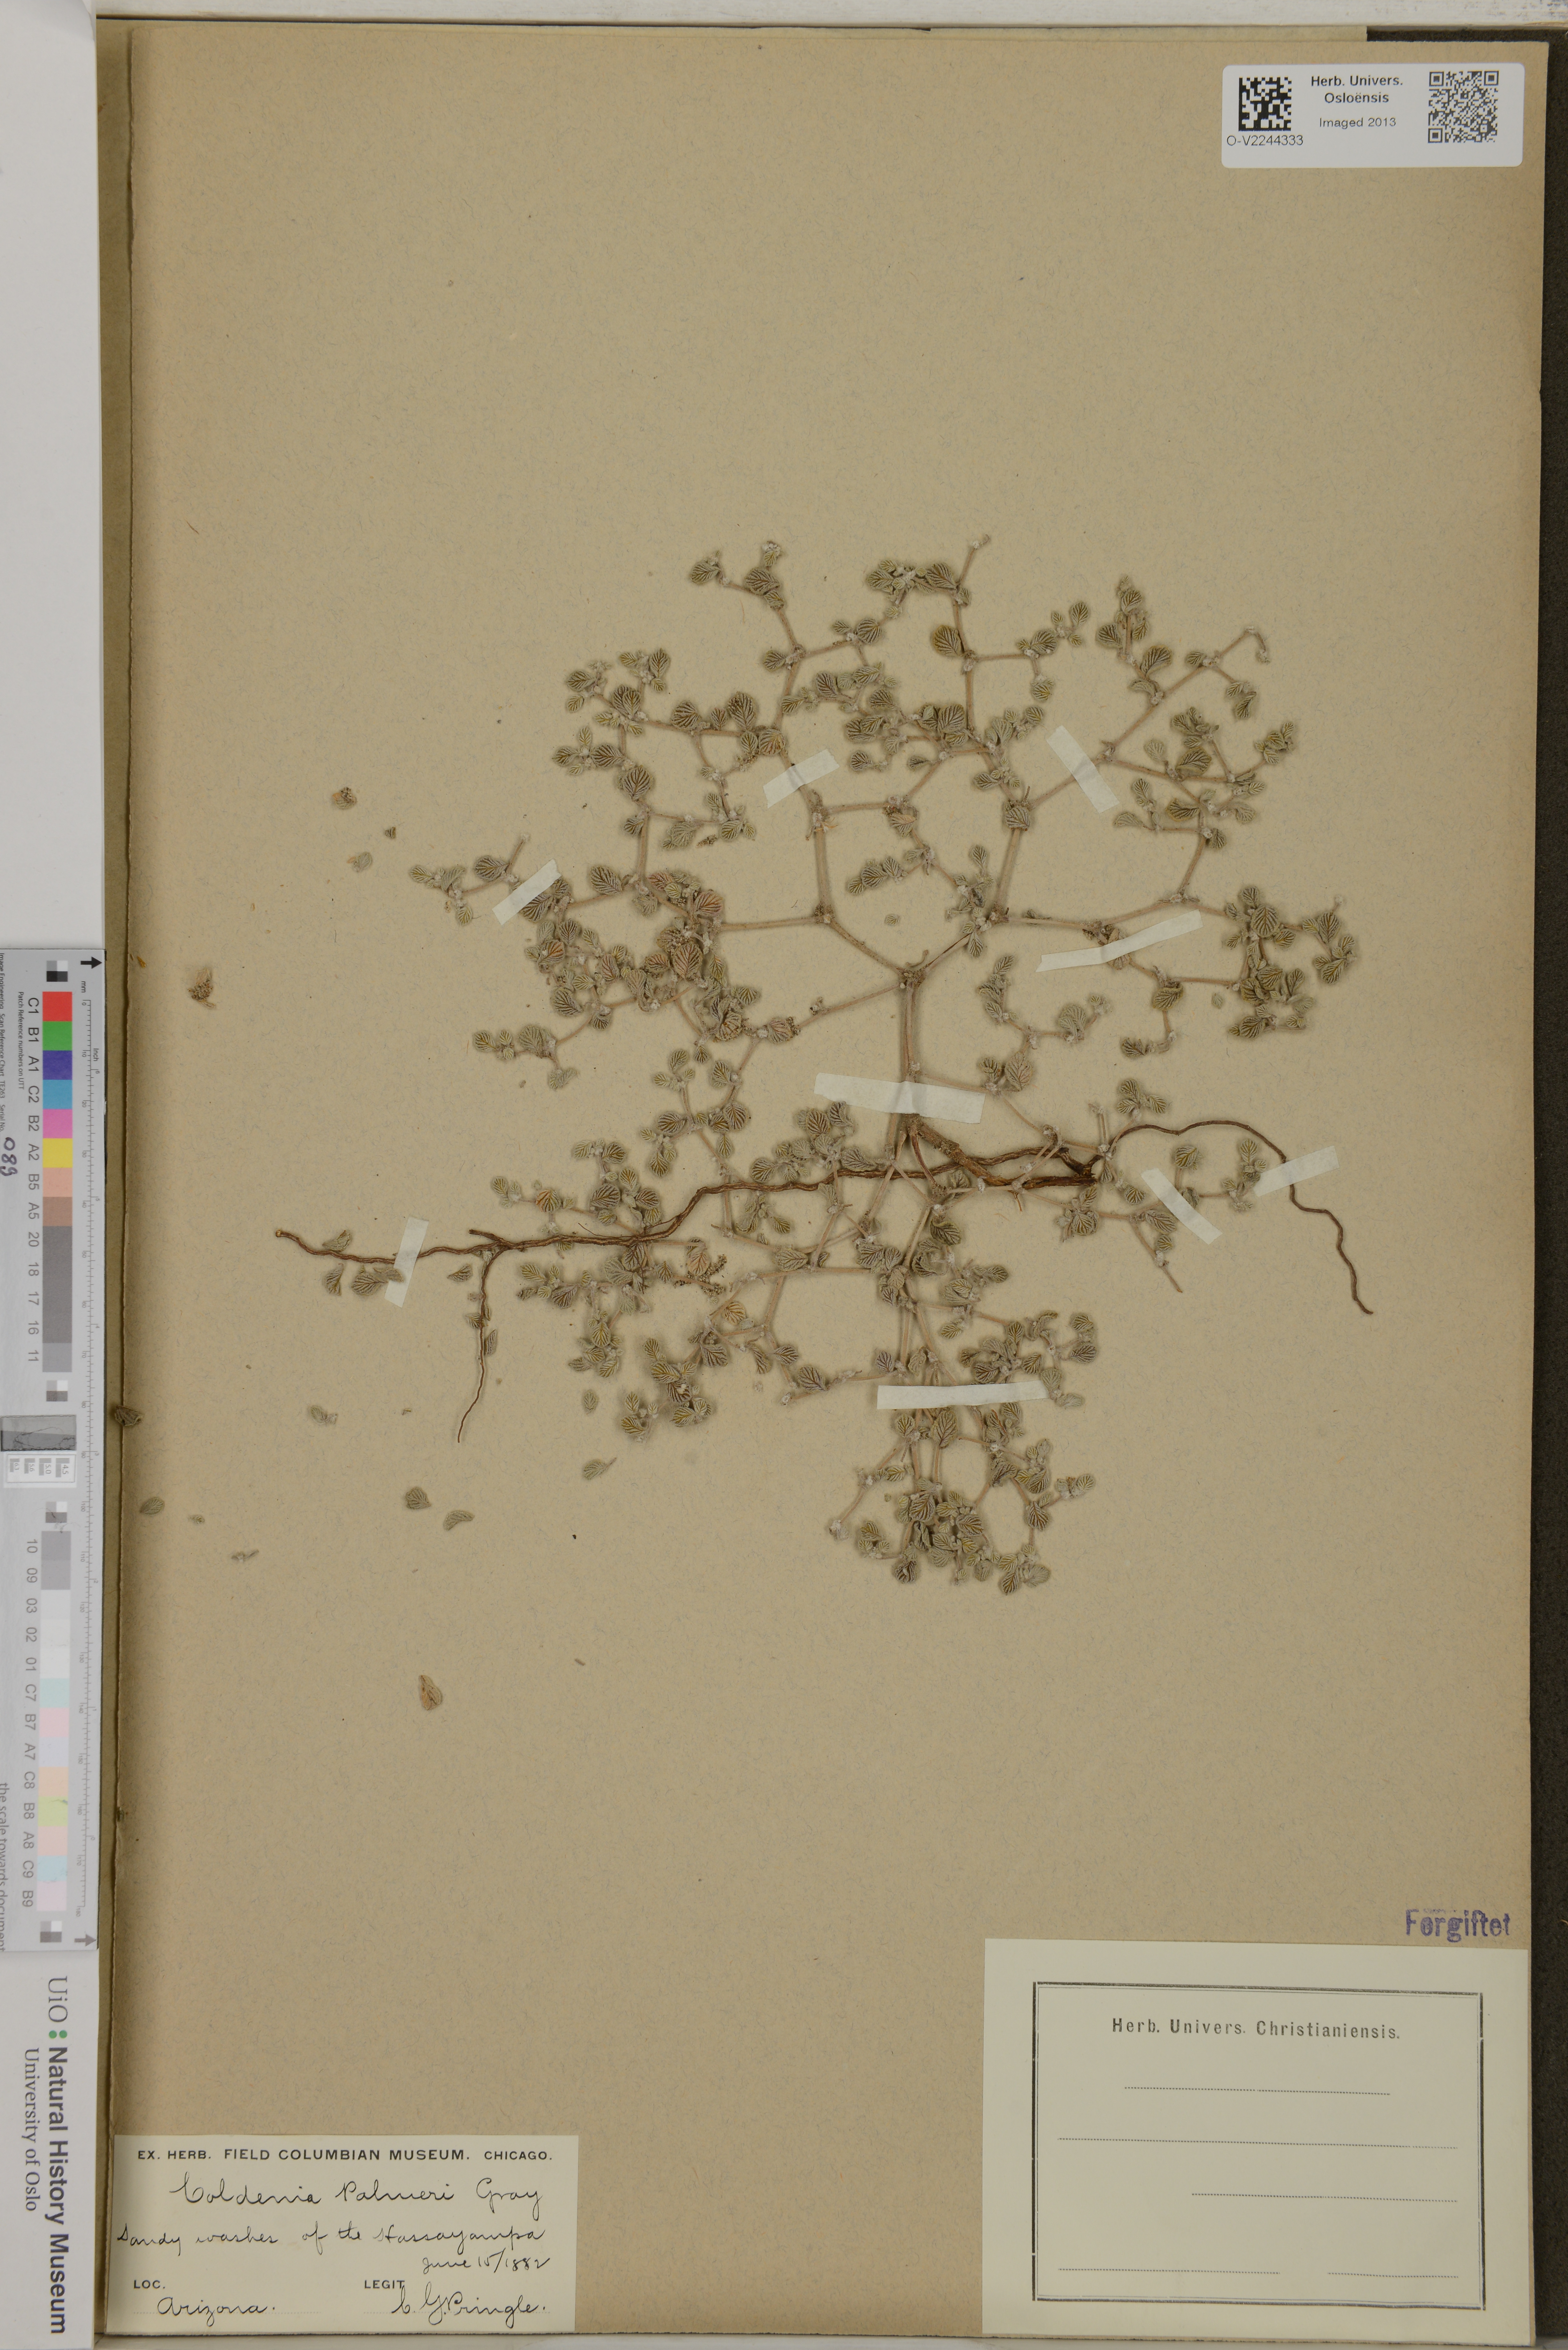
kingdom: Plantae
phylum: Tracheophyta
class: Magnoliopsida
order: Boraginales
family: Ehretiaceae
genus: Tiquilia
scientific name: Tiquilia palmeri
